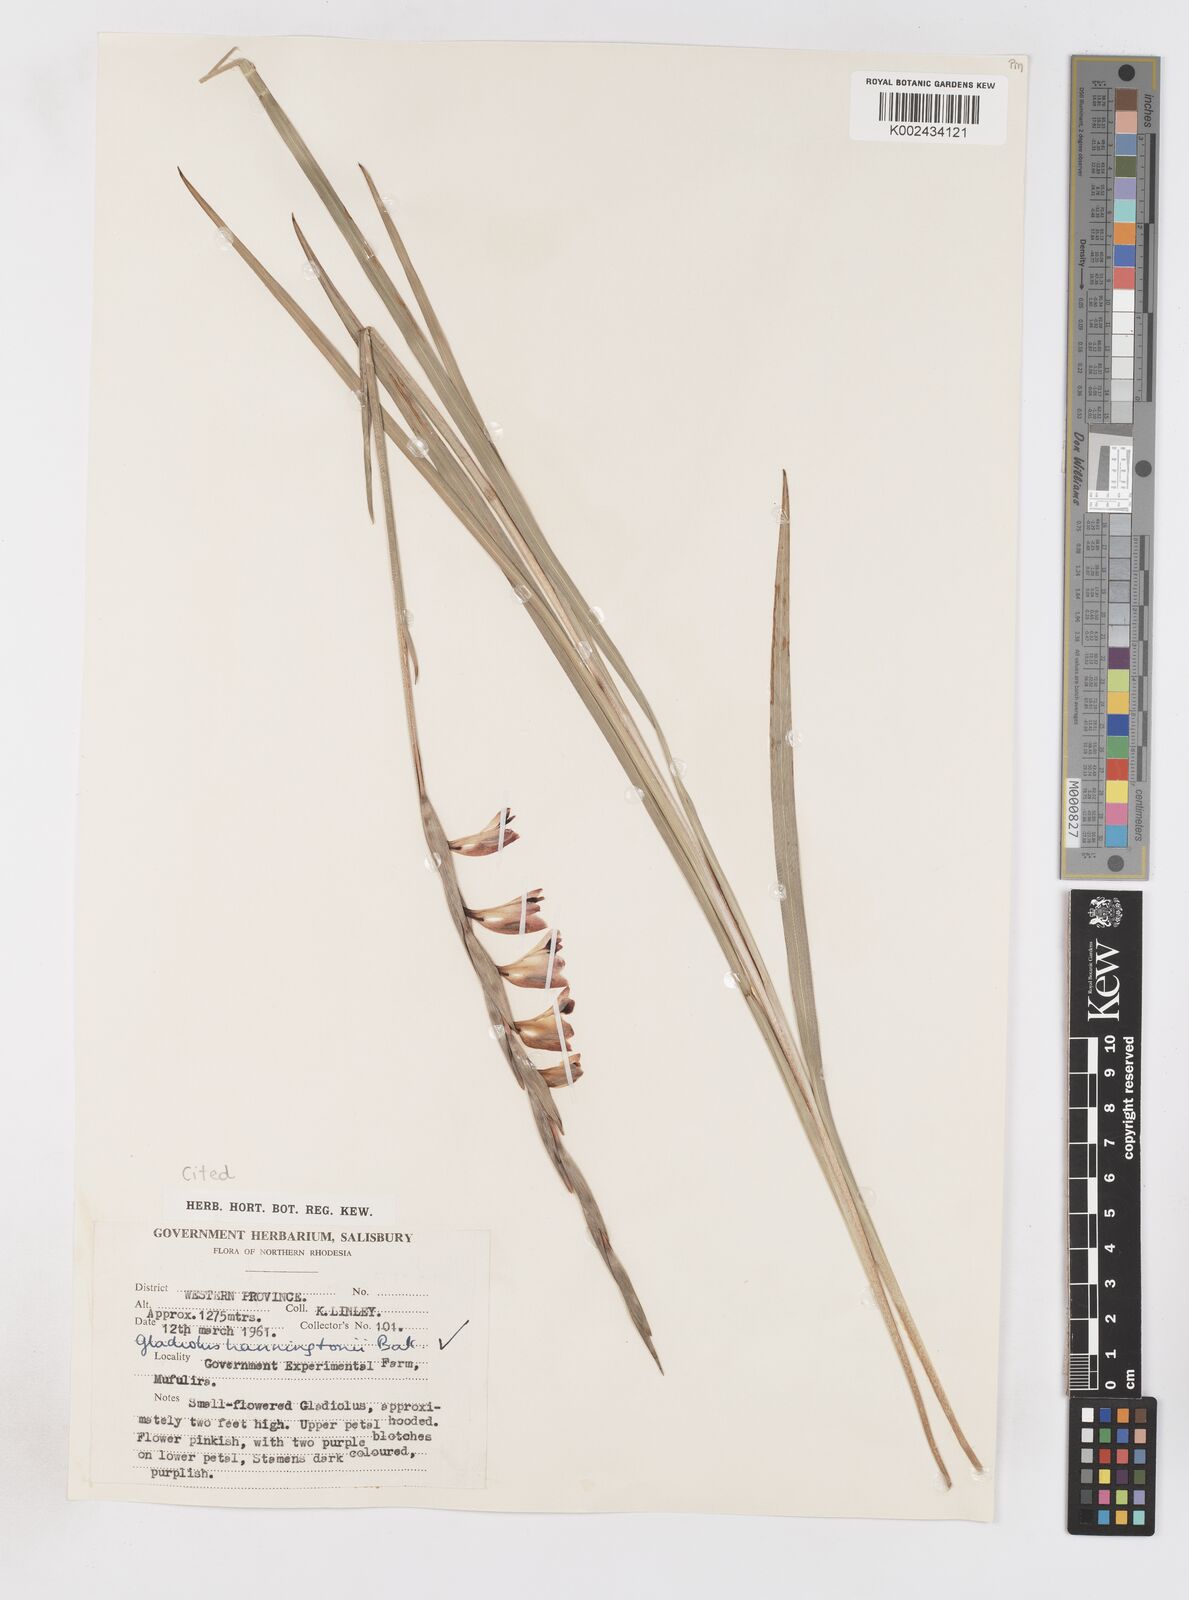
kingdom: Plantae
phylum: Tracheophyta
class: Liliopsida
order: Asparagales
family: Iridaceae
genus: Gladiolus
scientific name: Gladiolus gregarius
